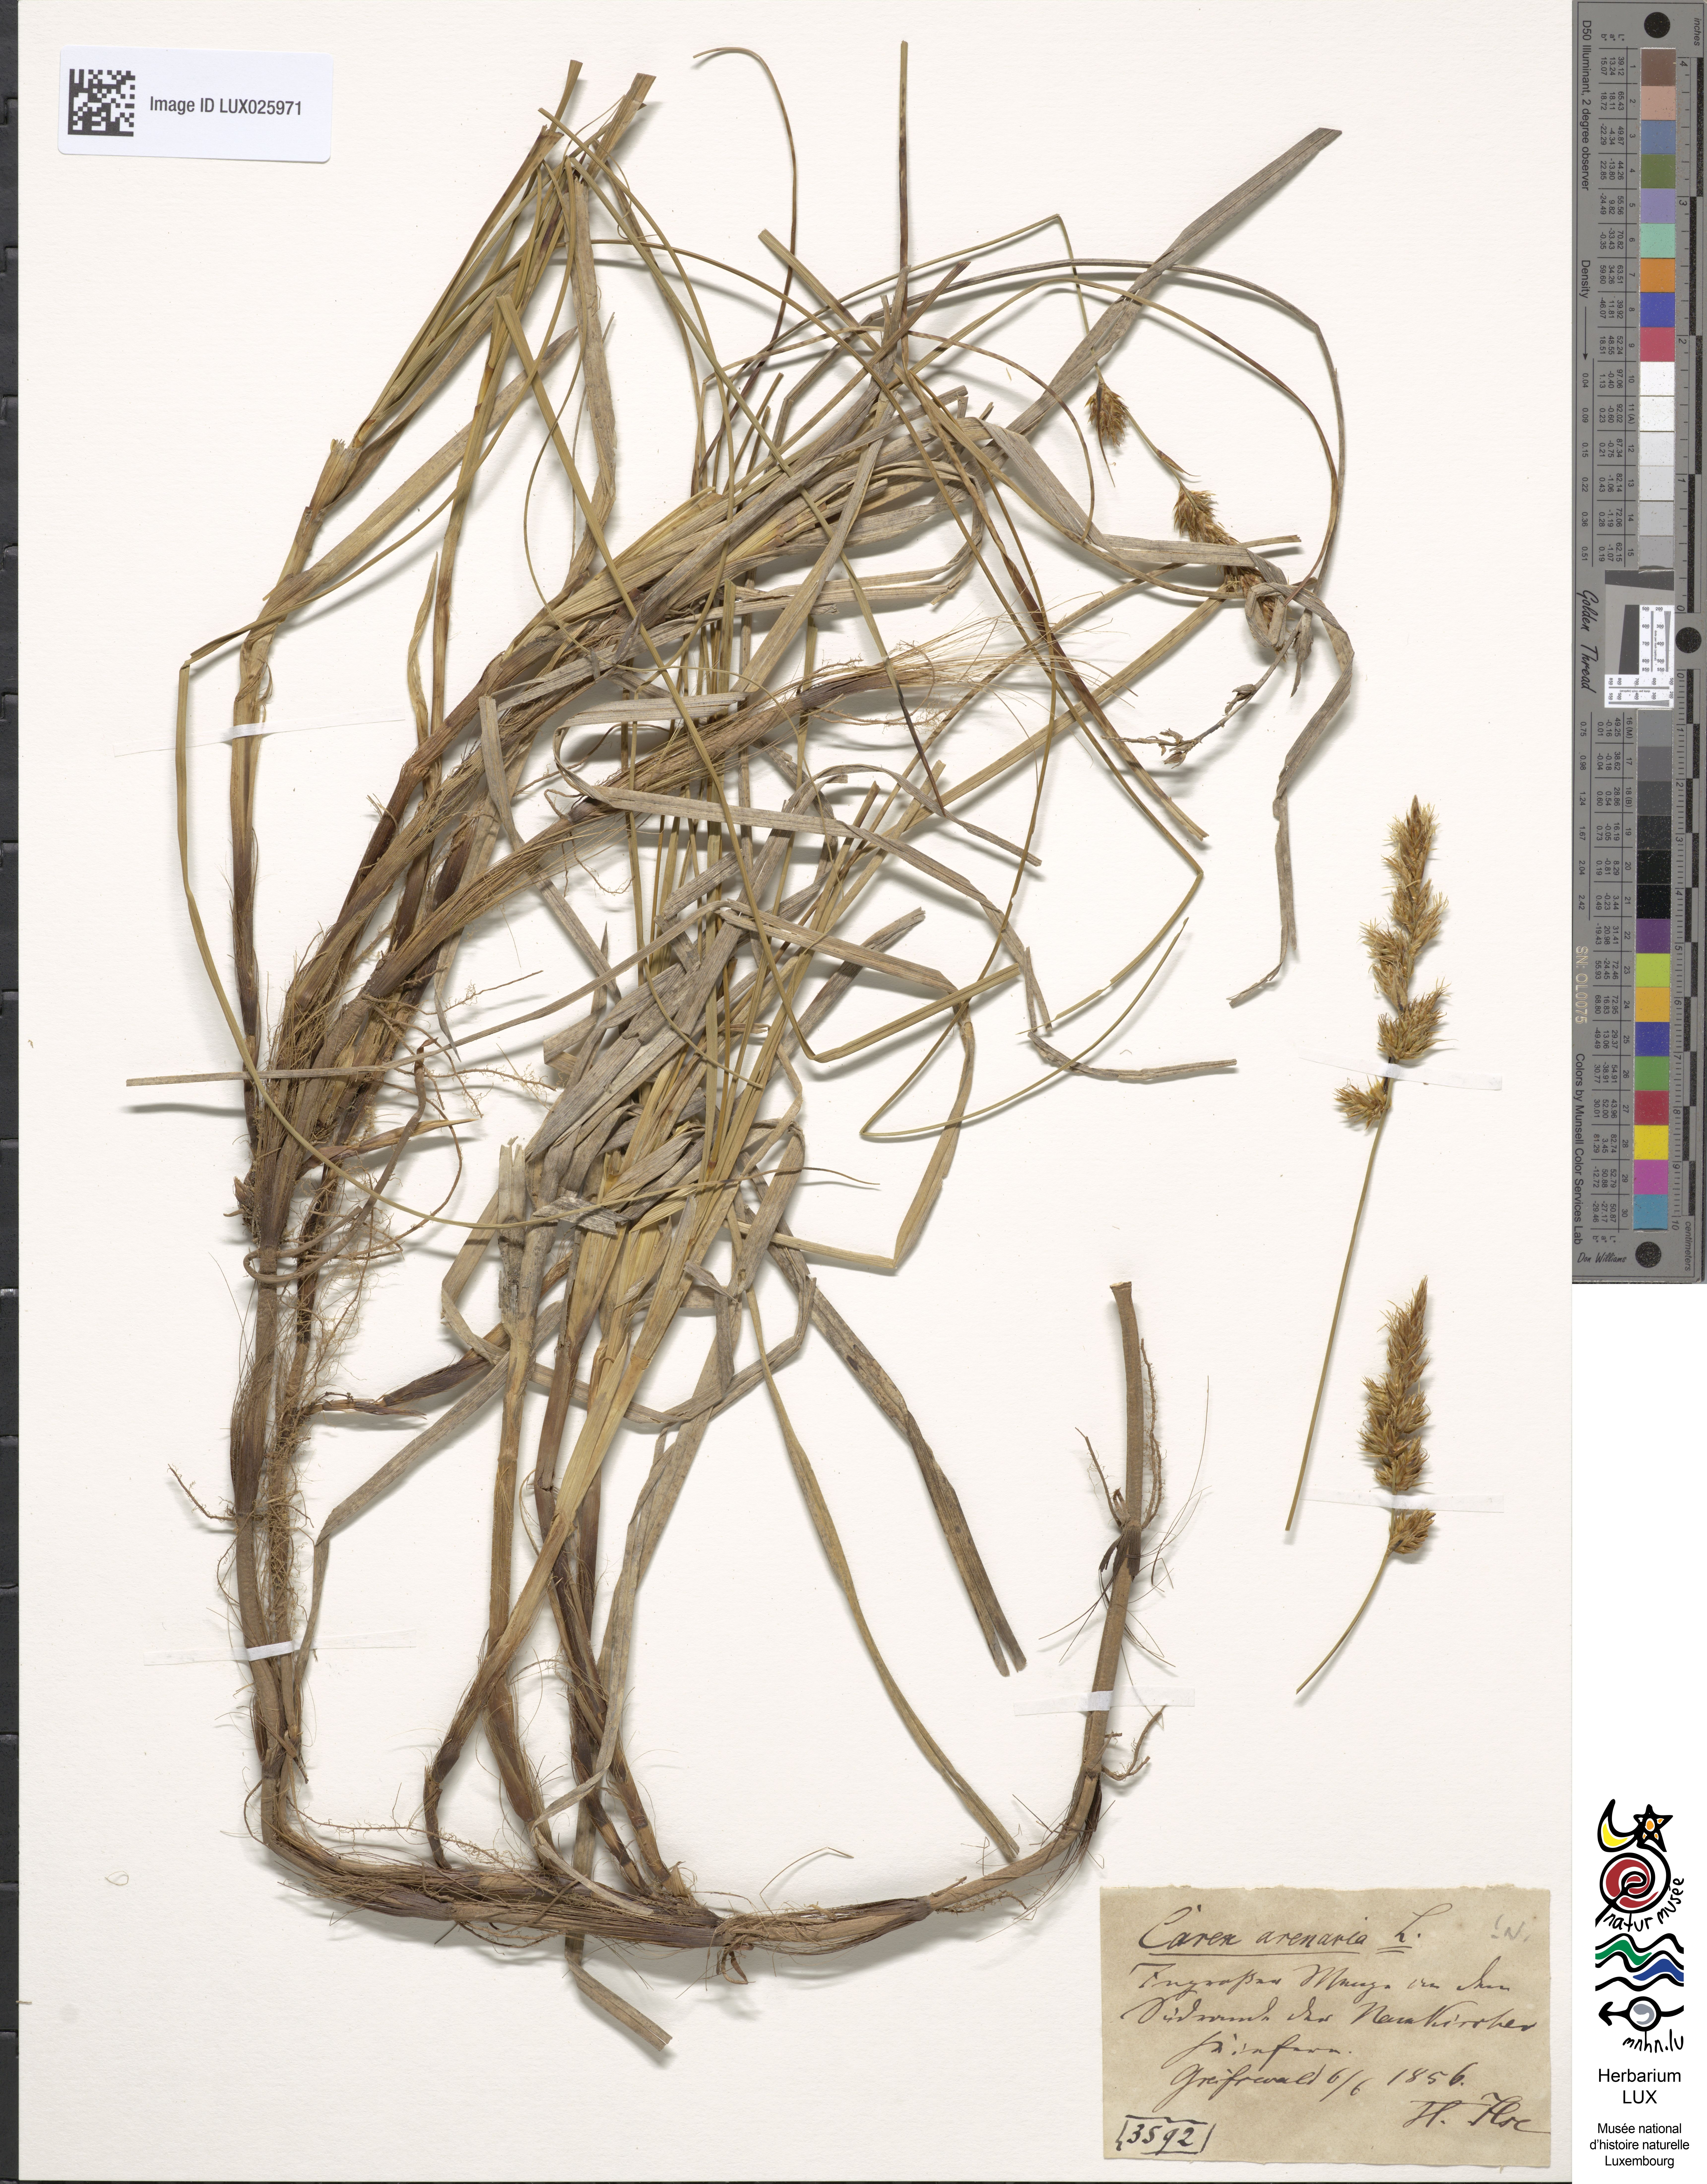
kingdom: Plantae
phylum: Tracheophyta
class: Liliopsida
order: Poales
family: Cyperaceae
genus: Carex
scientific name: Carex arenaria
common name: Sand sedge
